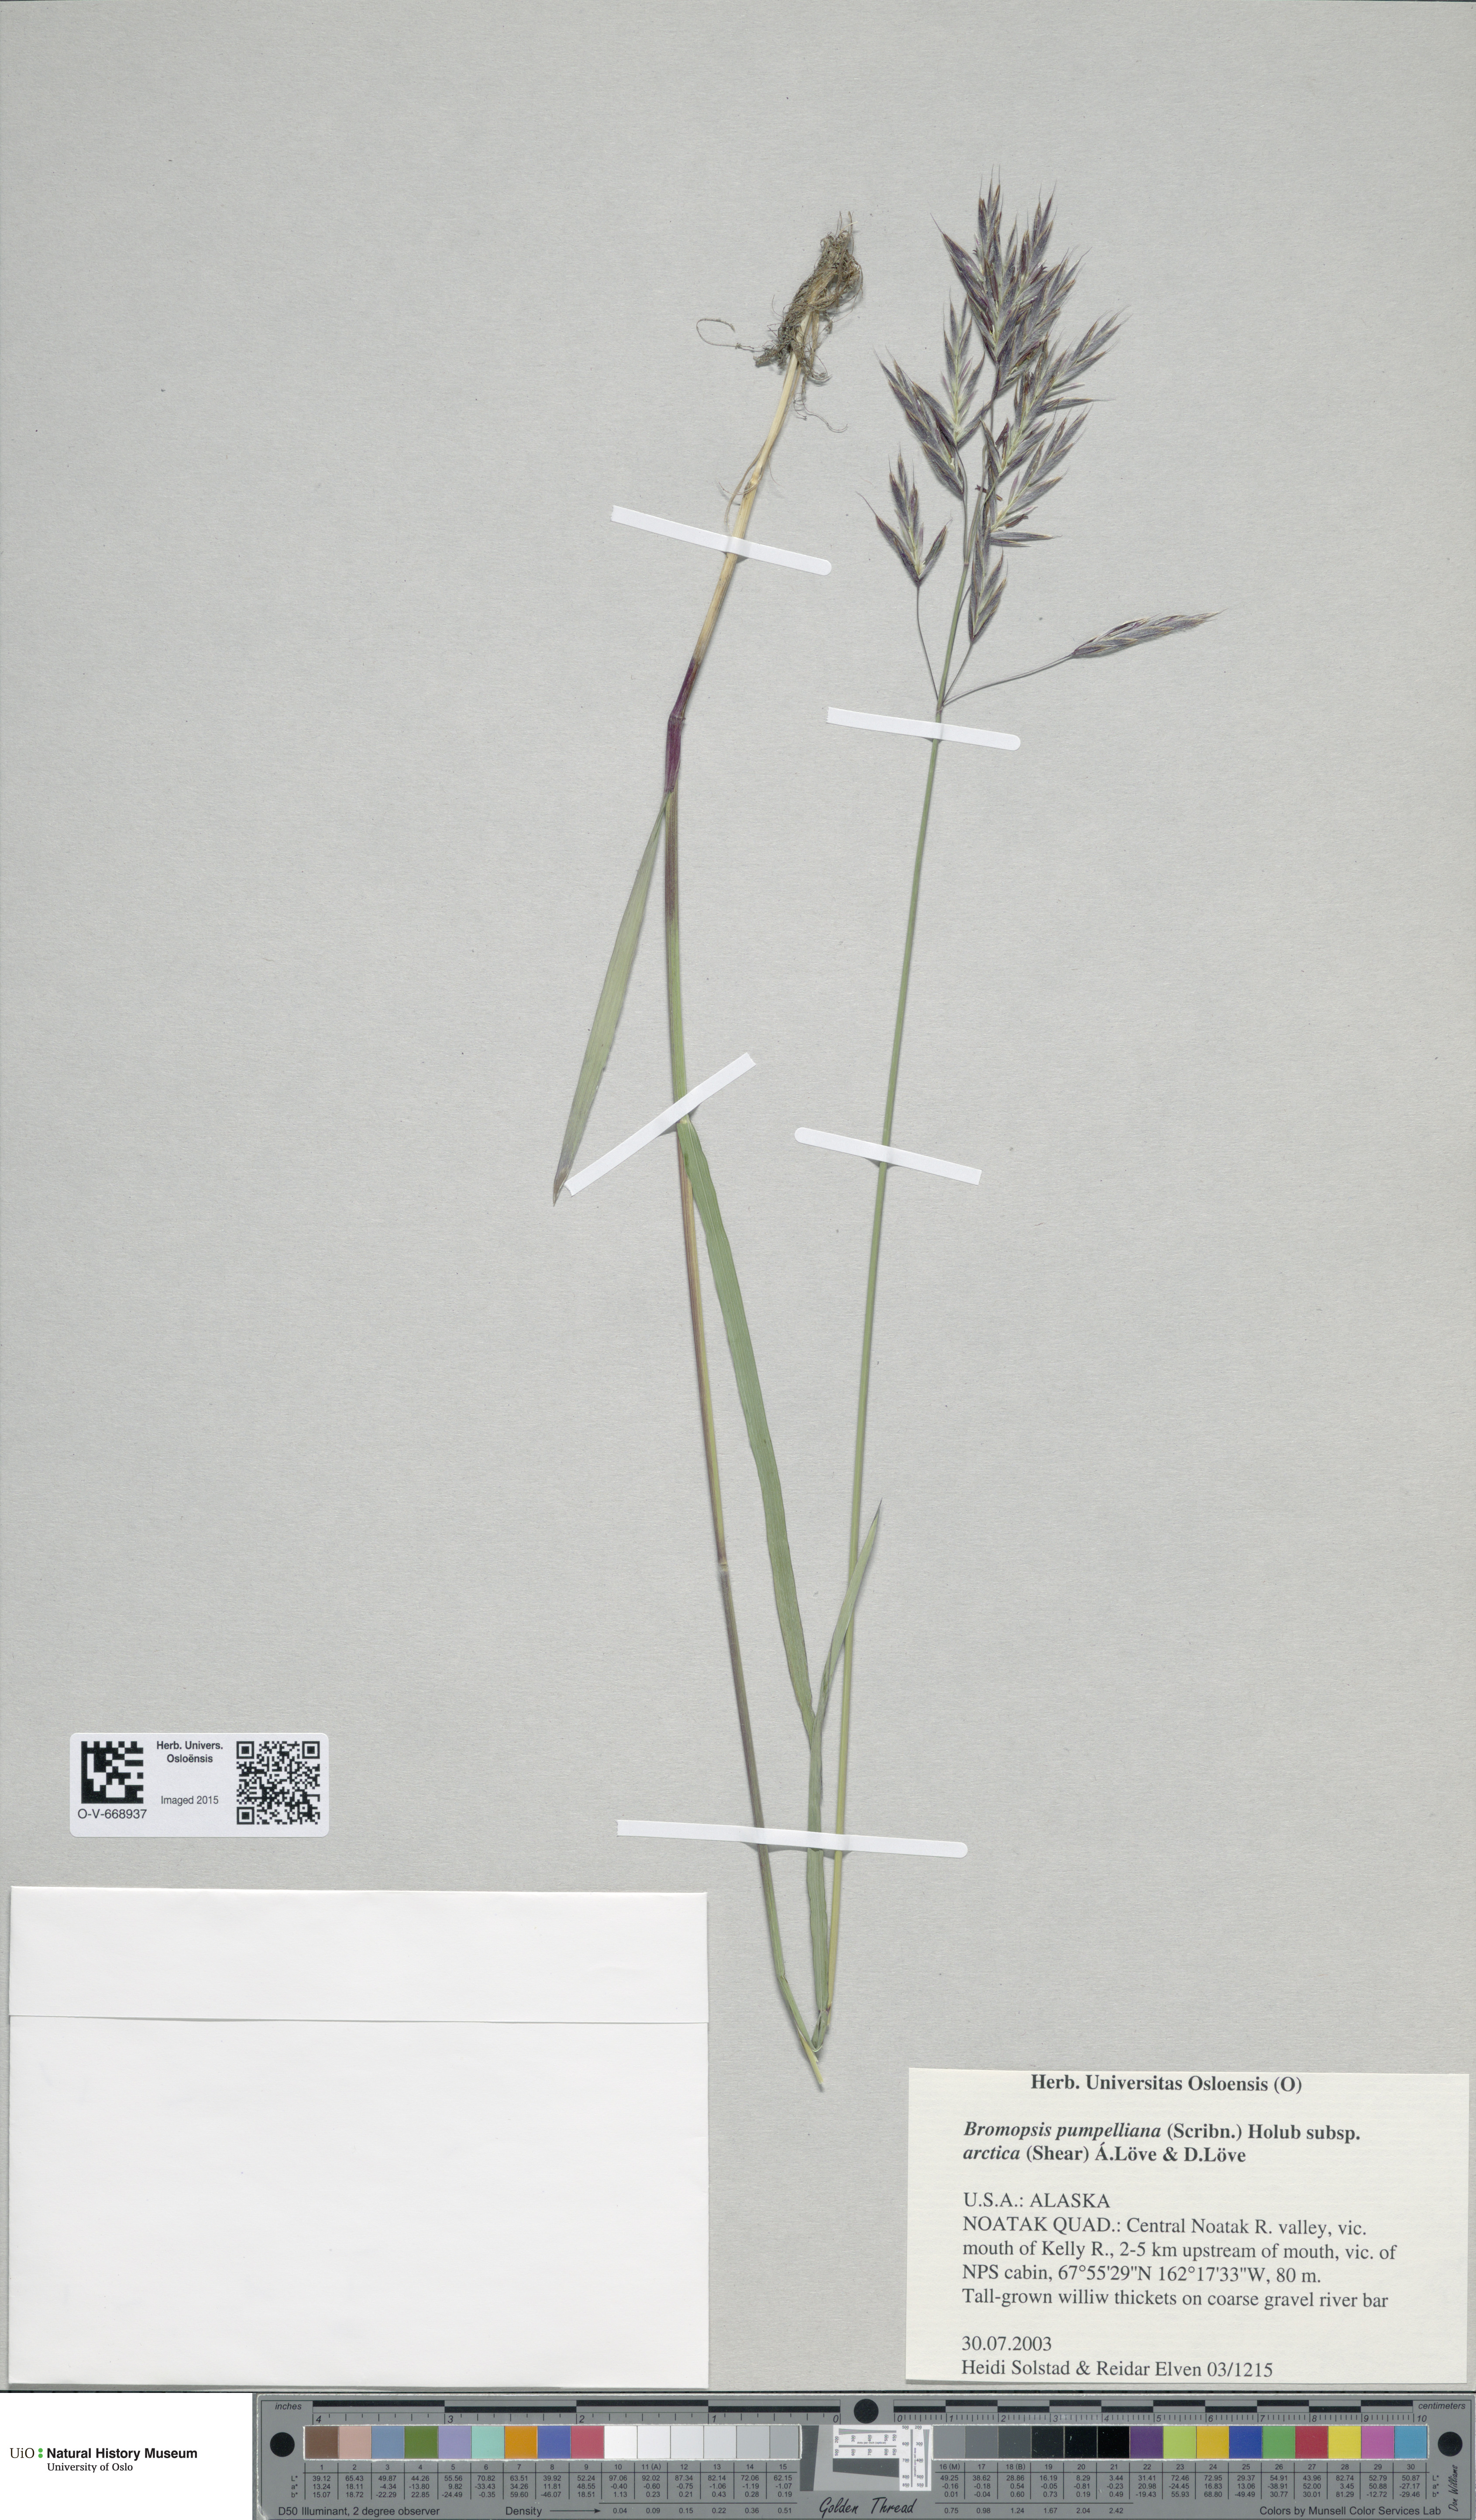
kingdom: Plantae
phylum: Tracheophyta
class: Liliopsida
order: Poales
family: Poaceae
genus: Bromus
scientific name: Bromus pumpellianus
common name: Pumpelly's brome
